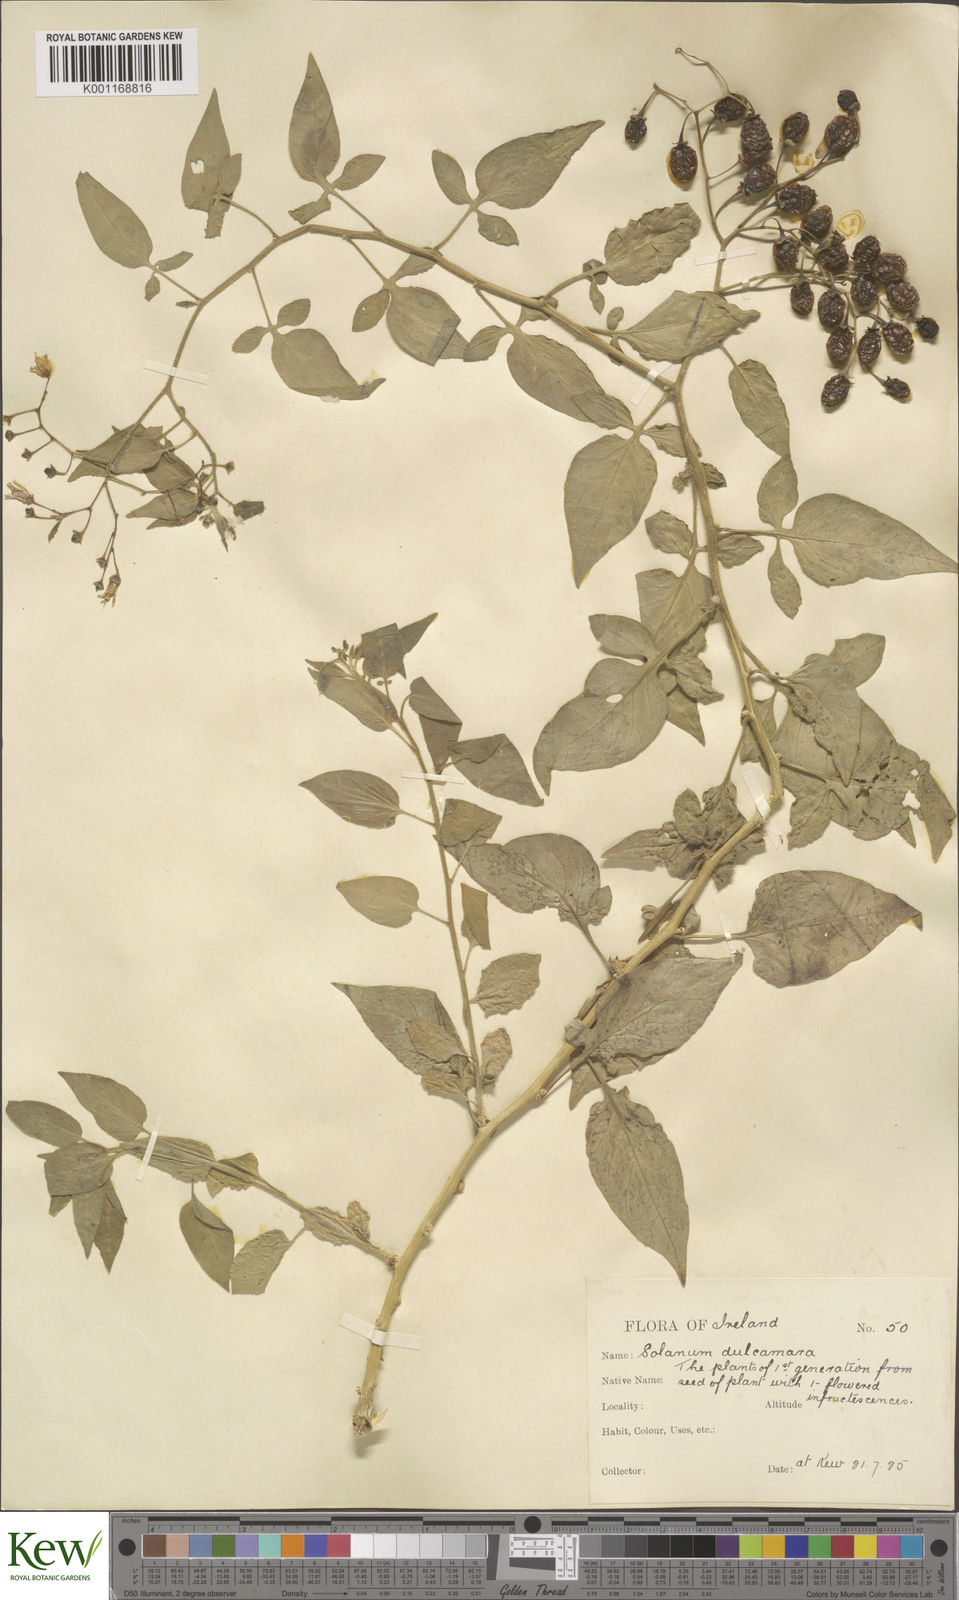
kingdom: Plantae
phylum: Tracheophyta
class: Magnoliopsida
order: Solanales
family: Solanaceae
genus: Solanum
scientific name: Solanum dulcamara
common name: Climbing nightshade
